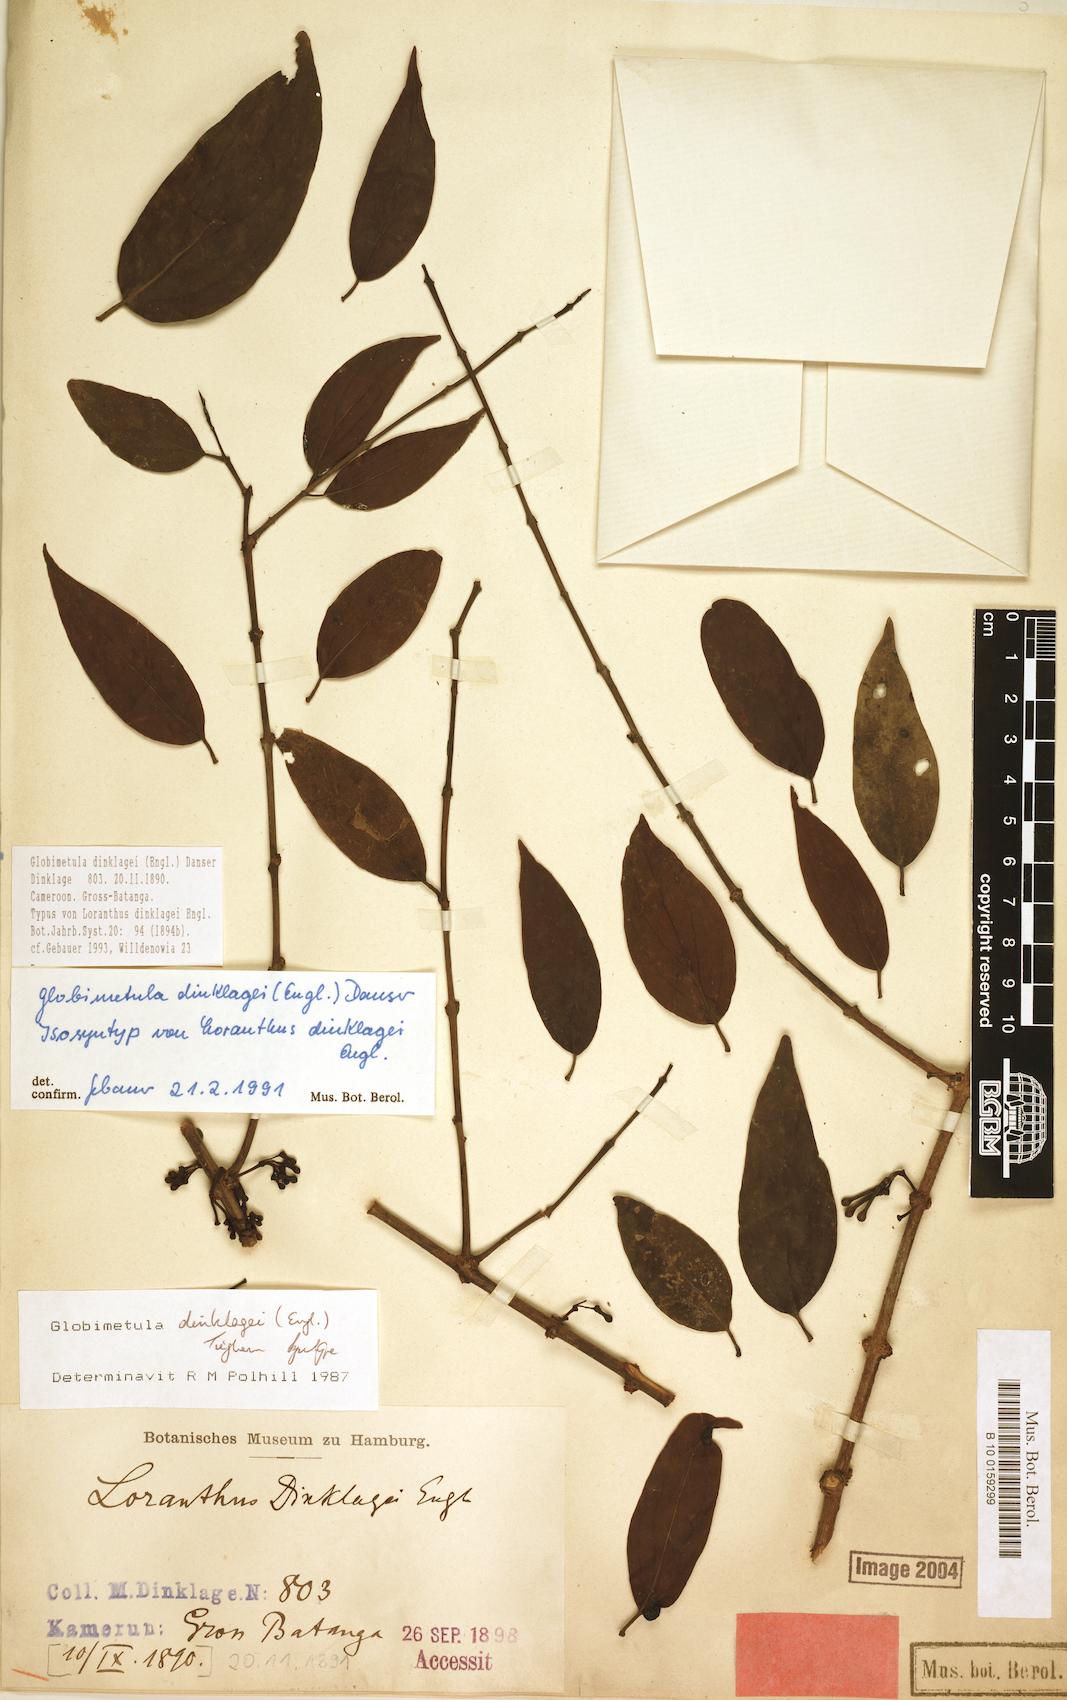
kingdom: Plantae
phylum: Tracheophyta
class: Magnoliopsida
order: Santalales
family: Loranthaceae
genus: Globimetula
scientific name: Globimetula dinklagei
